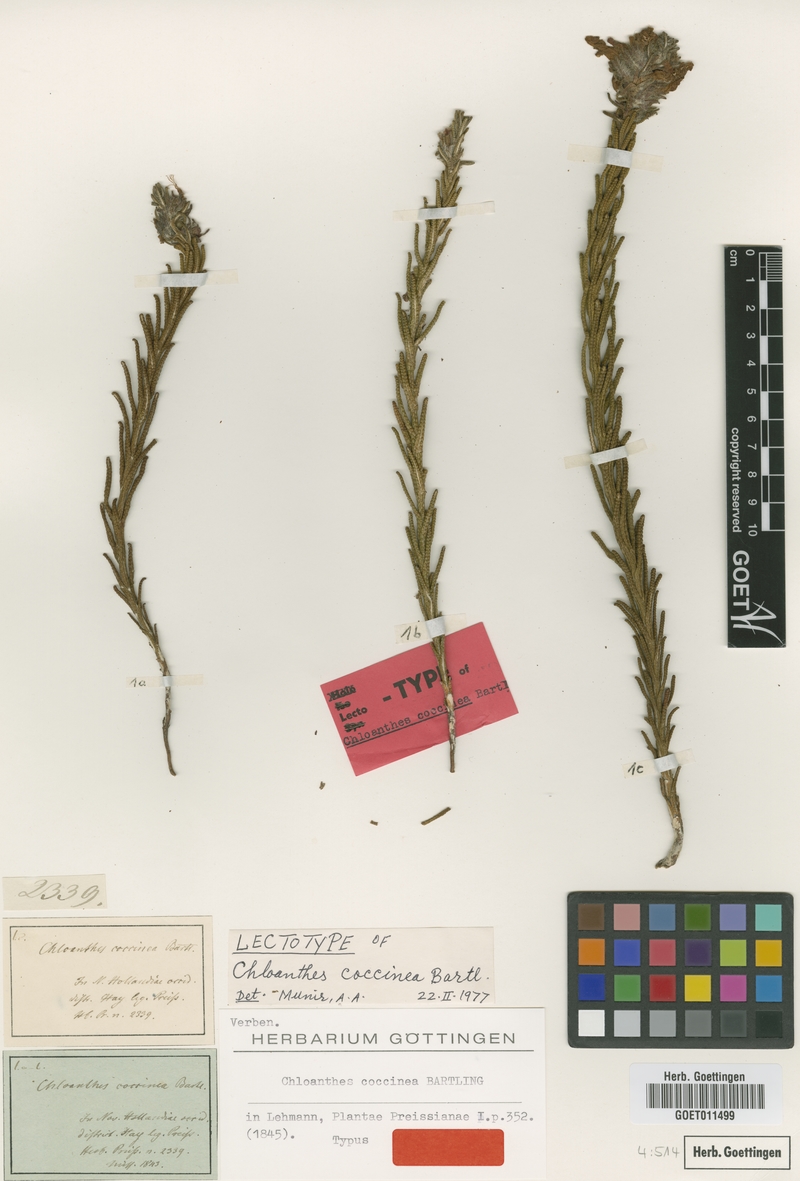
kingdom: Plantae
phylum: Tracheophyta
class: Magnoliopsida
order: Lamiales
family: Lamiaceae
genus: Chloanthes
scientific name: Chloanthes coccinea
